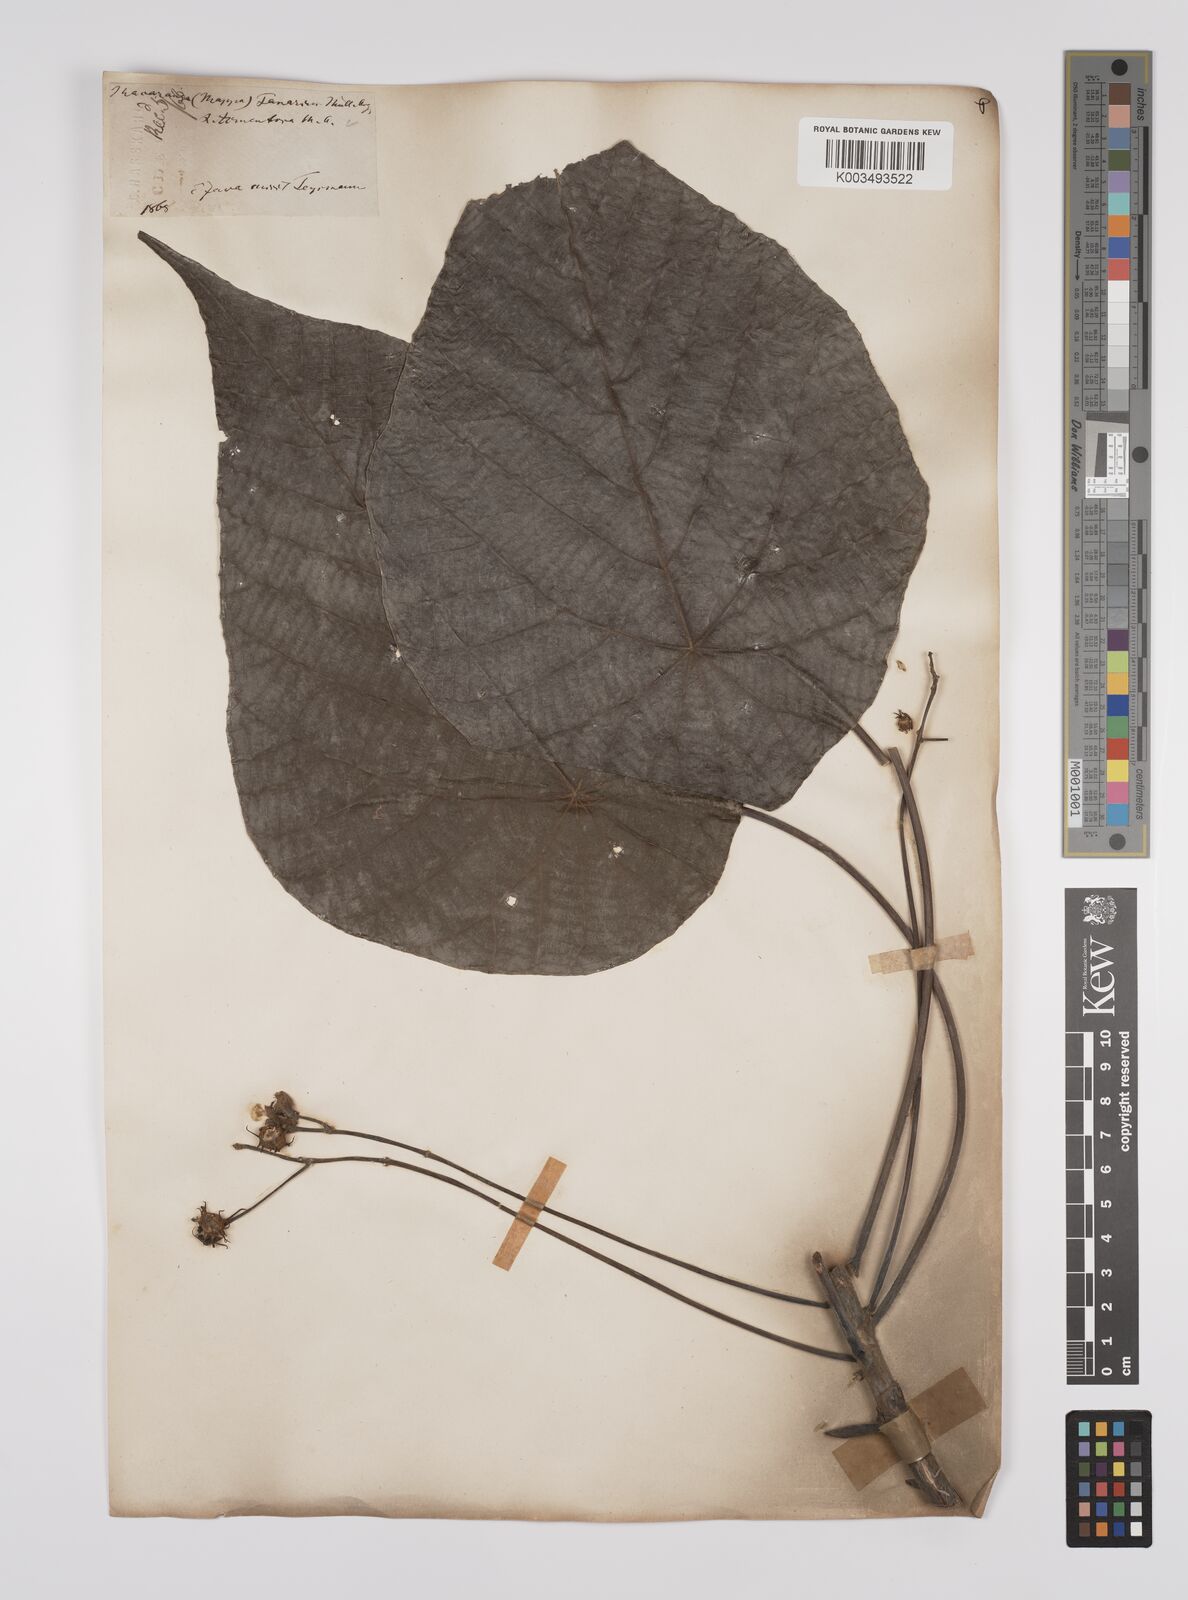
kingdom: Plantae
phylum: Tracheophyta
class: Magnoliopsida
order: Malpighiales
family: Euphorbiaceae
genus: Macaranga
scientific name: Macaranga tanarius
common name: Parasol leaf tree
